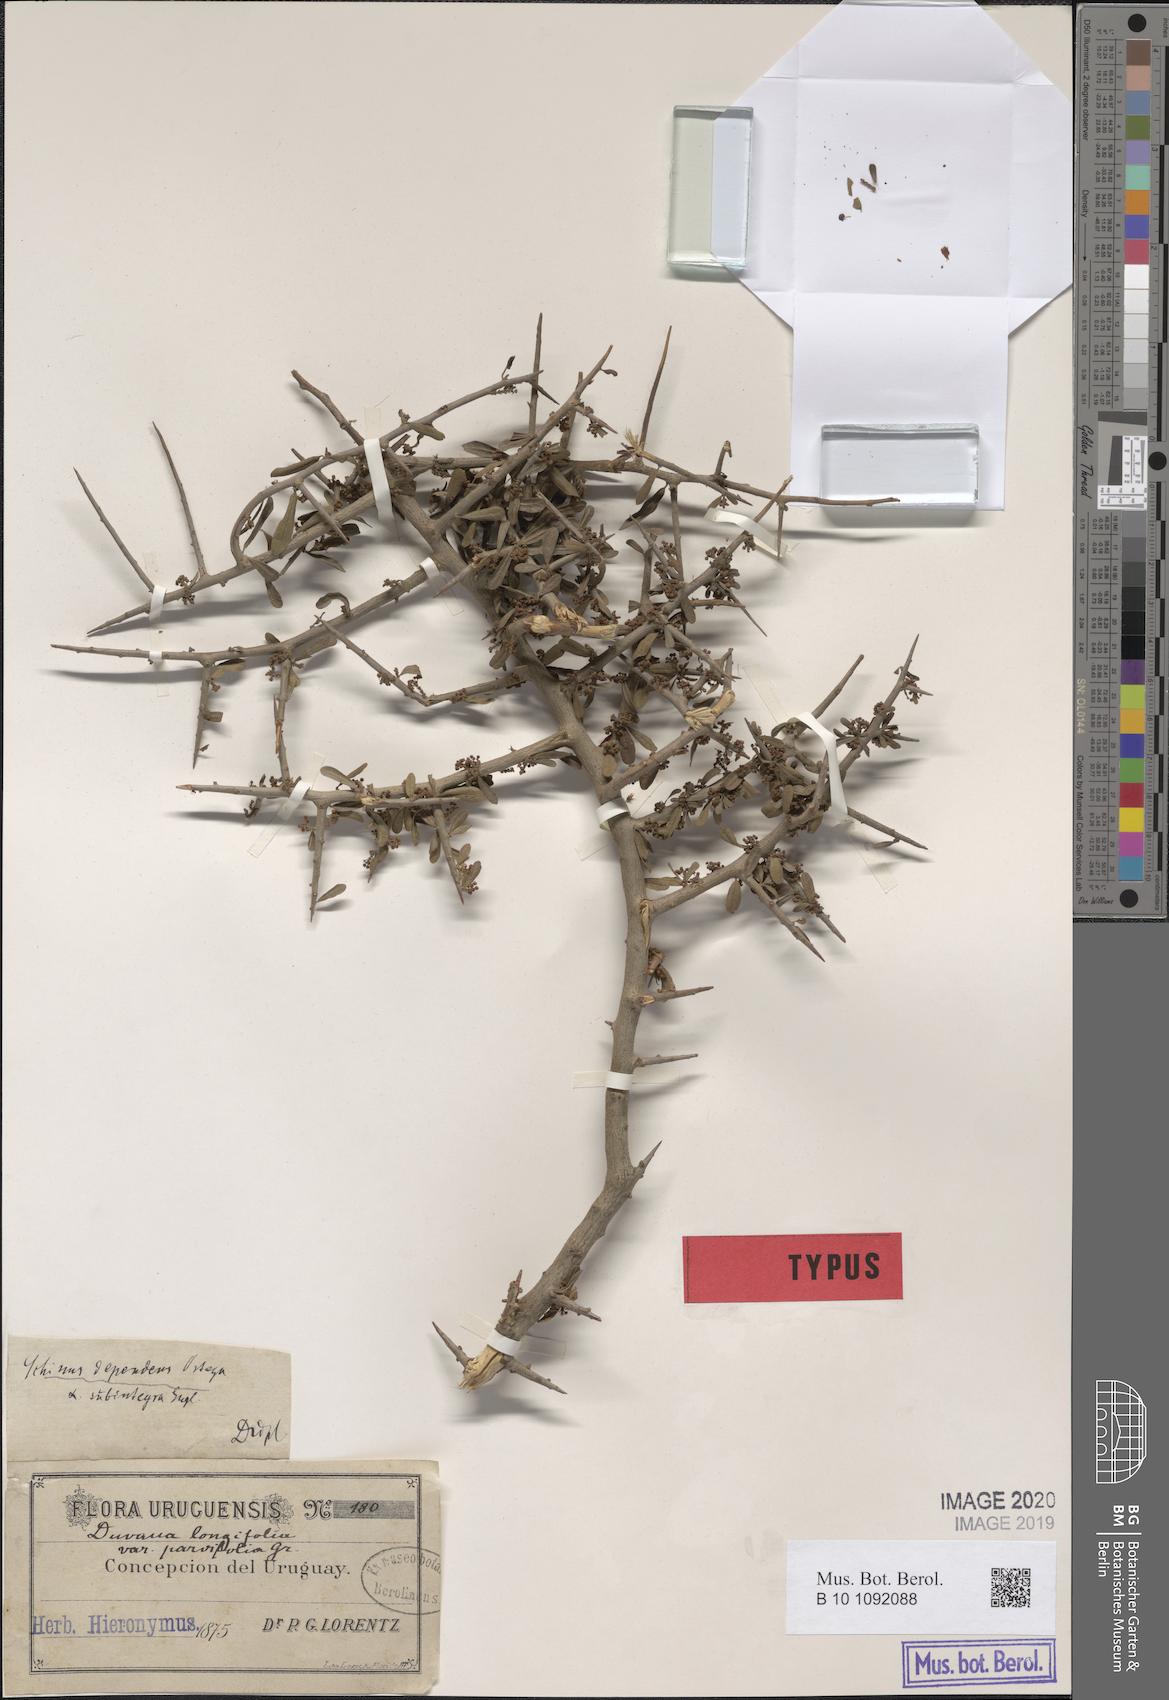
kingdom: Plantae
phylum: Tracheophyta
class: Magnoliopsida
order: Sapindales
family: Anacardiaceae
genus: Schinus
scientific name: Schinus fasciculata
